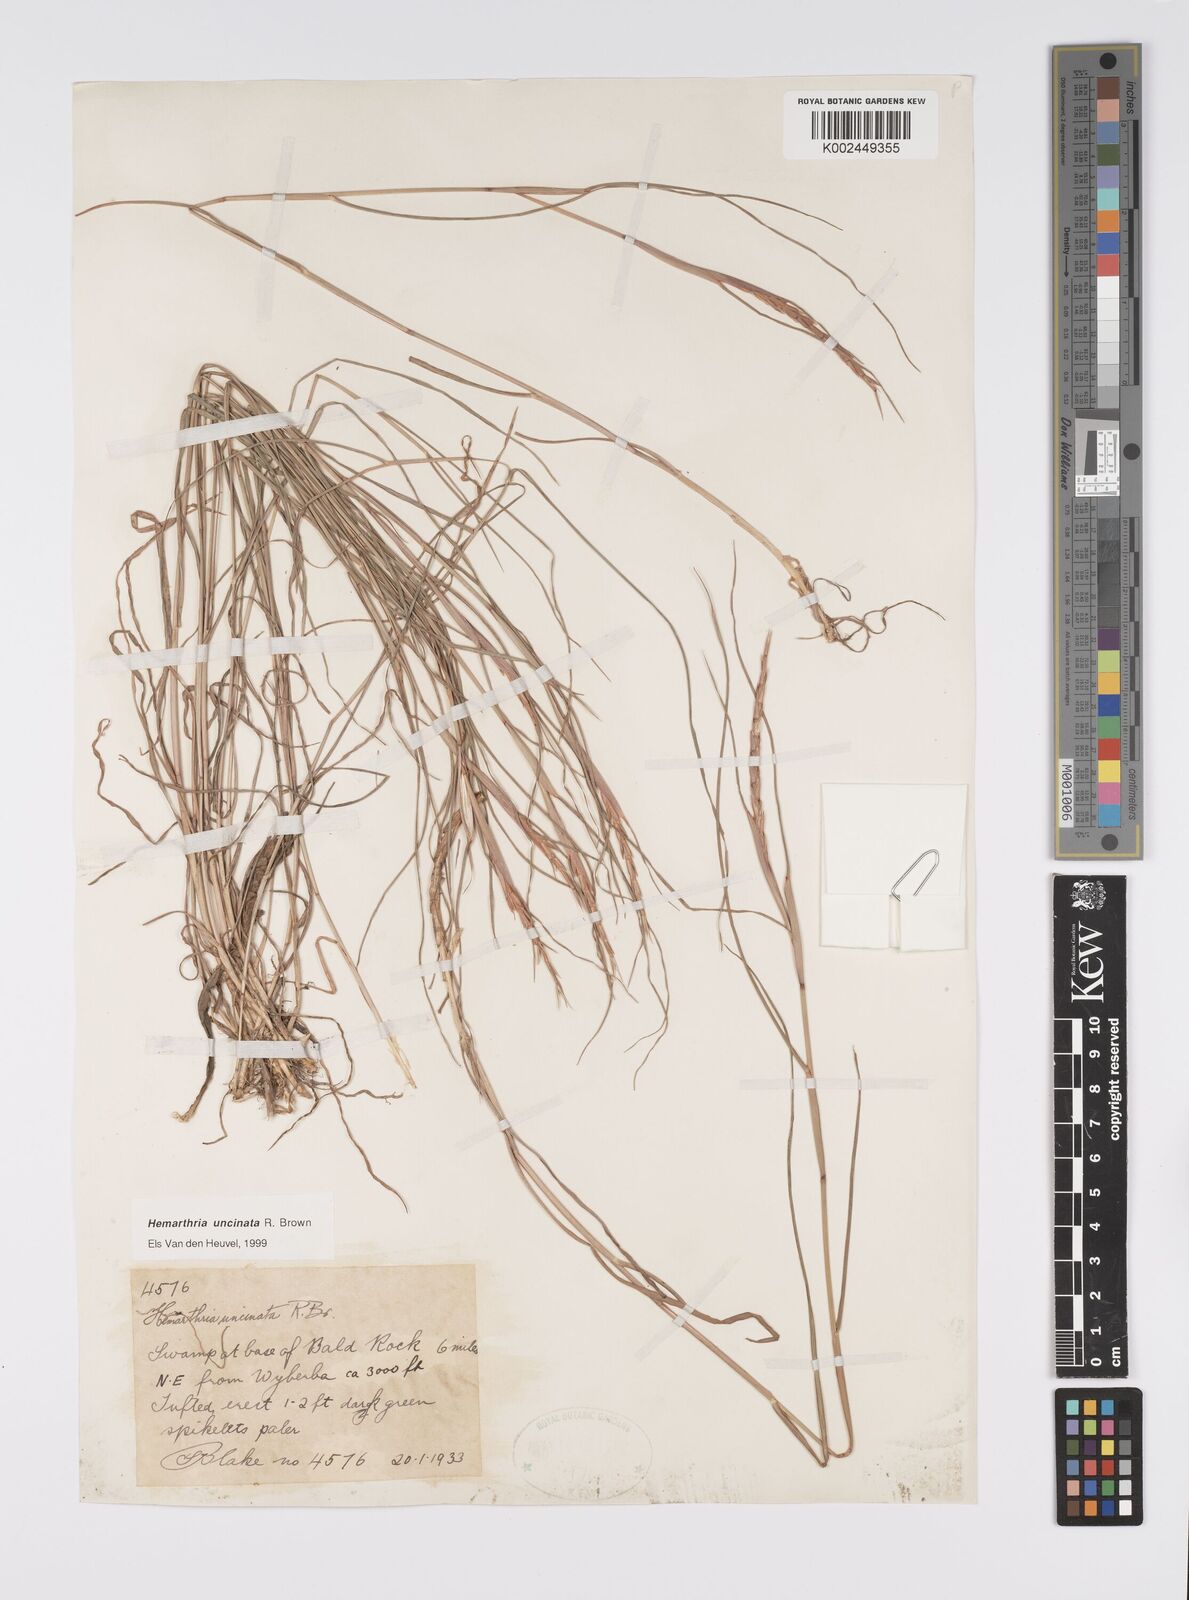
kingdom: Plantae
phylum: Tracheophyta
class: Liliopsida
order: Poales
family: Poaceae
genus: Hemarthria
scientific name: Hemarthria uncinata
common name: Matgrass
